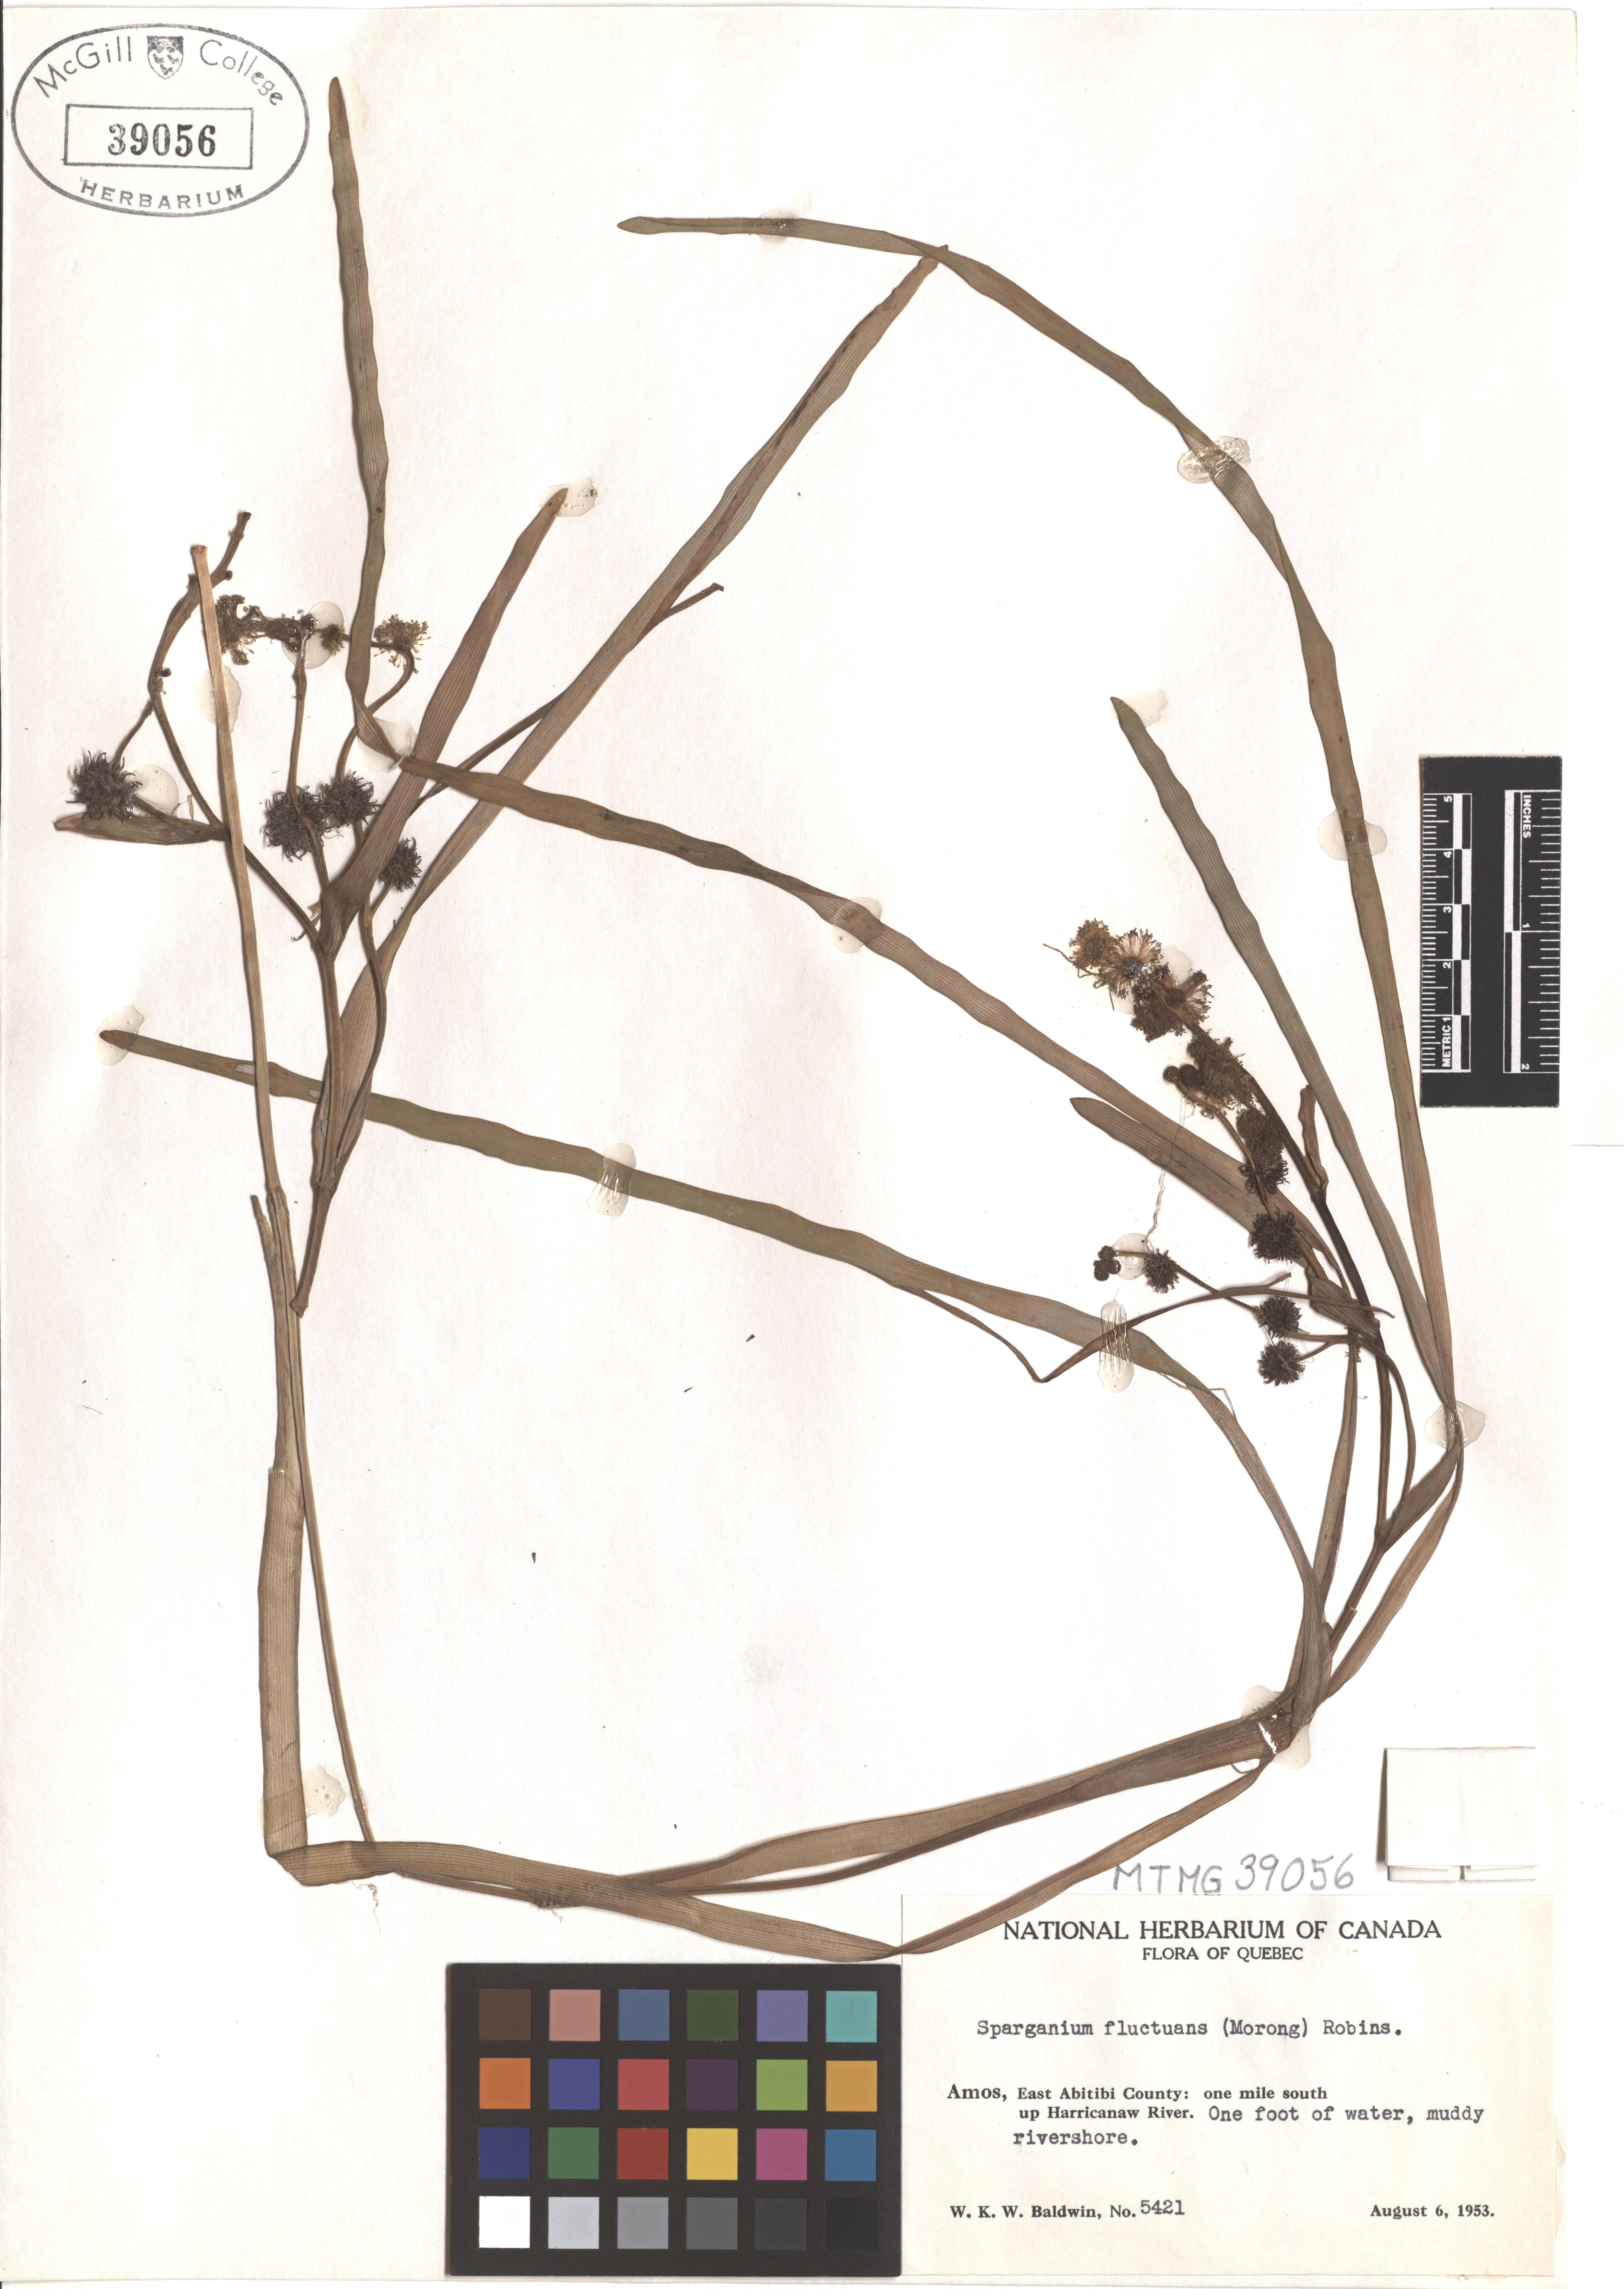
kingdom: Plantae
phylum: Tracheophyta
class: Liliopsida
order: Poales
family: Typhaceae
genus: Sparganium
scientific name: Sparganium fluctuans
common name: Floating burreed
